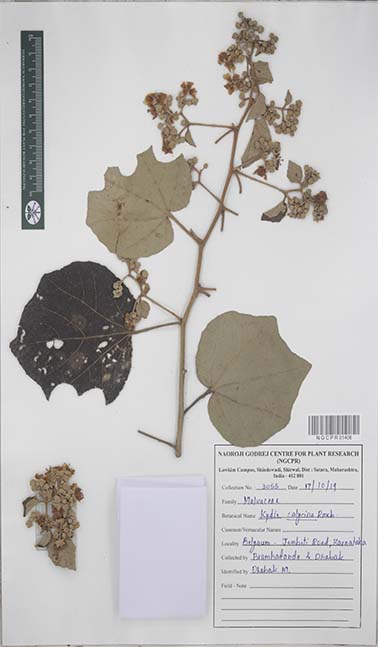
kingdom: Plantae
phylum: Tracheophyta
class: Magnoliopsida
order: Malvales
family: Malvaceae
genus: Kydia
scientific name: Kydia calycina
